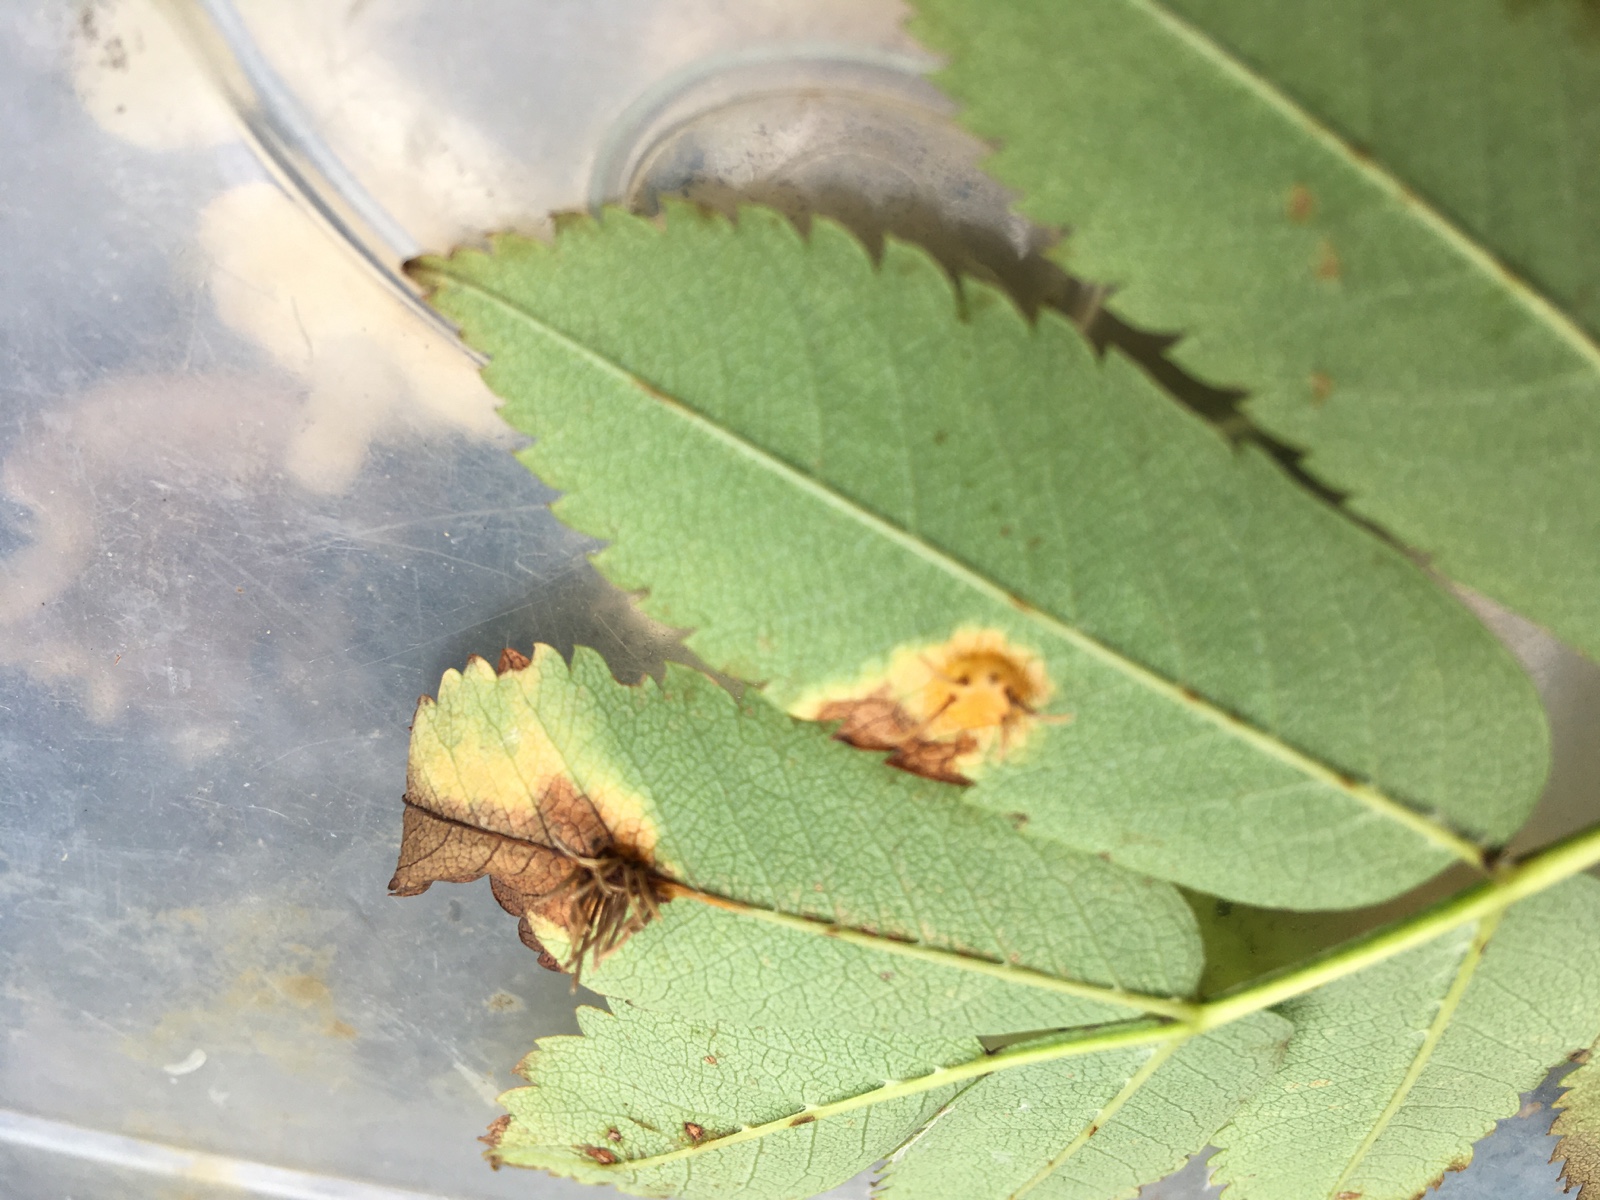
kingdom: Fungi
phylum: Basidiomycota
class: Pucciniomycetes
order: Pucciniales
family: Gymnosporangiaceae
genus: Gymnosporangium
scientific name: Gymnosporangium cornutum
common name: rønnehorn-bævrerust
